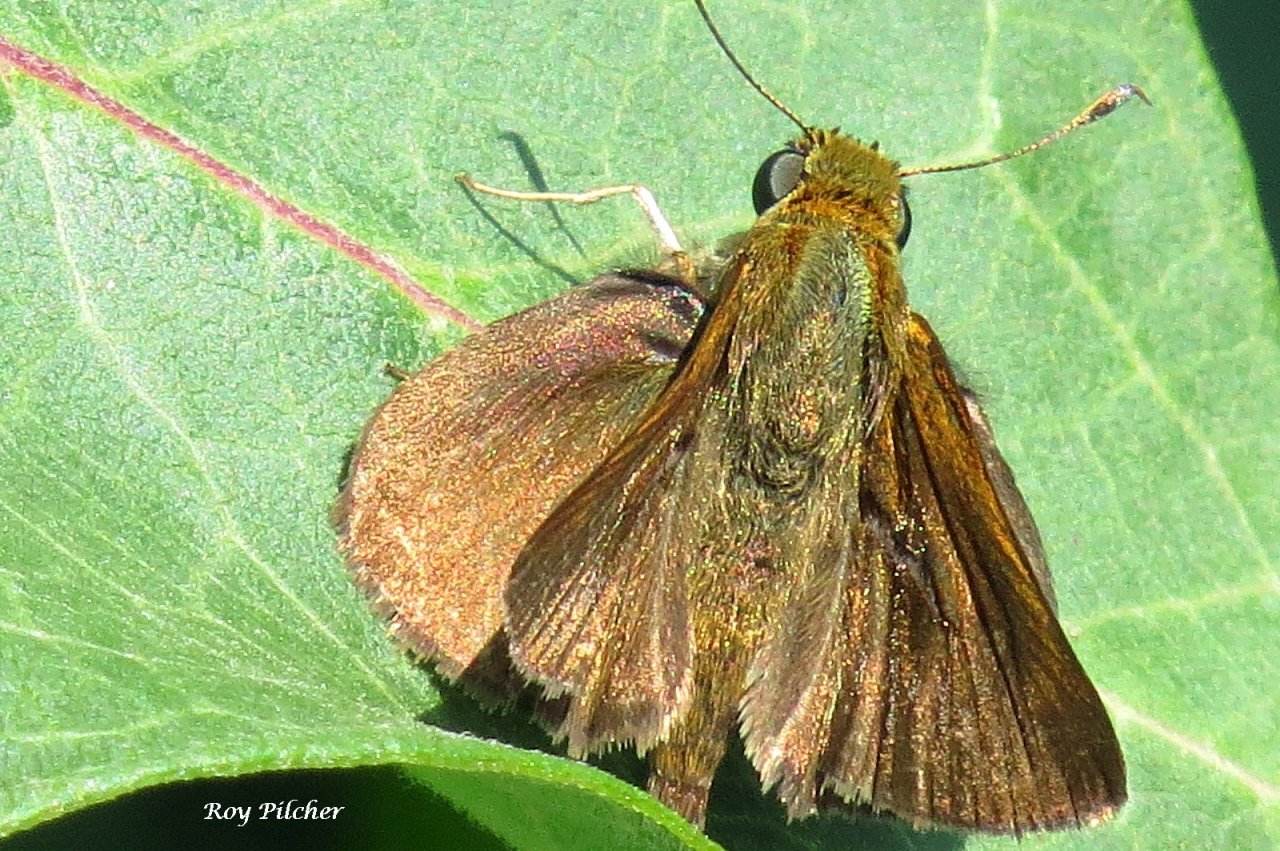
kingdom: Animalia
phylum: Arthropoda
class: Insecta
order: Lepidoptera
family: Hesperiidae
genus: Euphyes
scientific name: Euphyes vestris
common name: Dun Skipper
